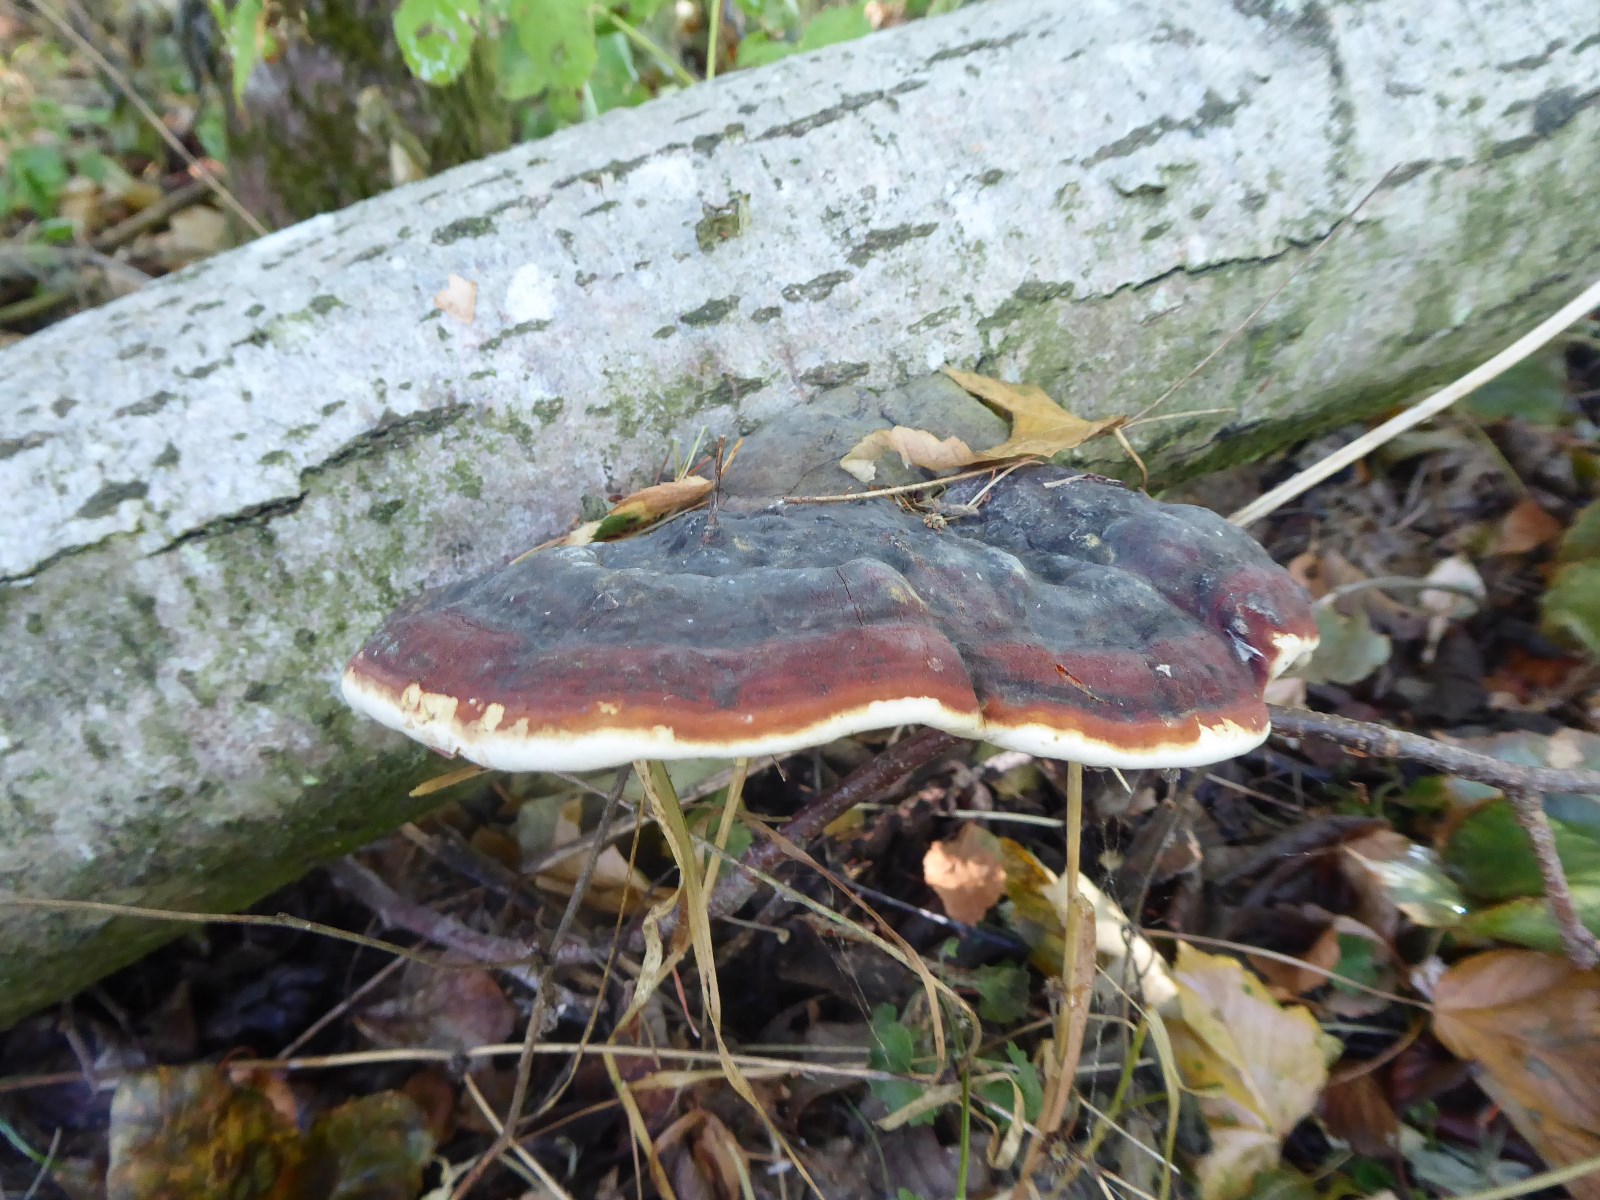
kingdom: Fungi
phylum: Basidiomycota
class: Agaricomycetes
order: Polyporales
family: Fomitopsidaceae
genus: Fomitopsis
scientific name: Fomitopsis pinicola
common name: randbæltet hovporesvamp
